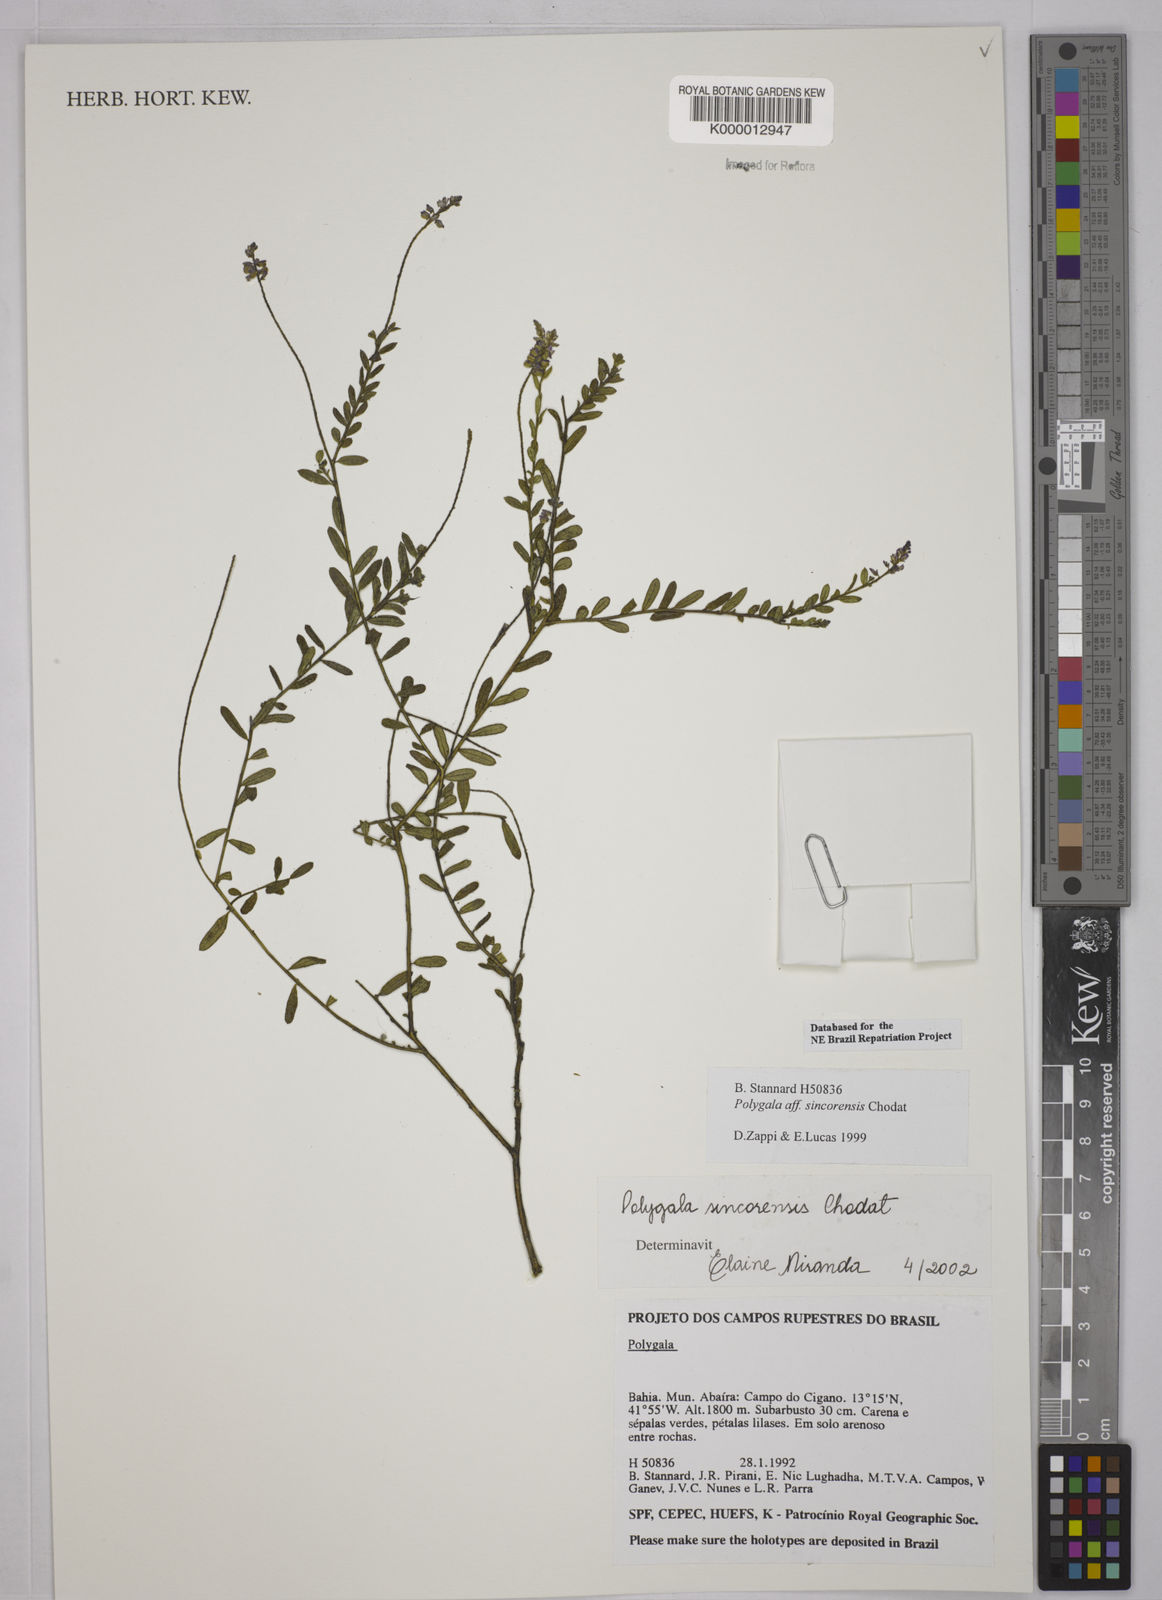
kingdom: Plantae
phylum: Tracheophyta
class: Magnoliopsida
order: Fabales
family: Polygalaceae
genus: Polygala
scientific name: Polygala sincorensis
